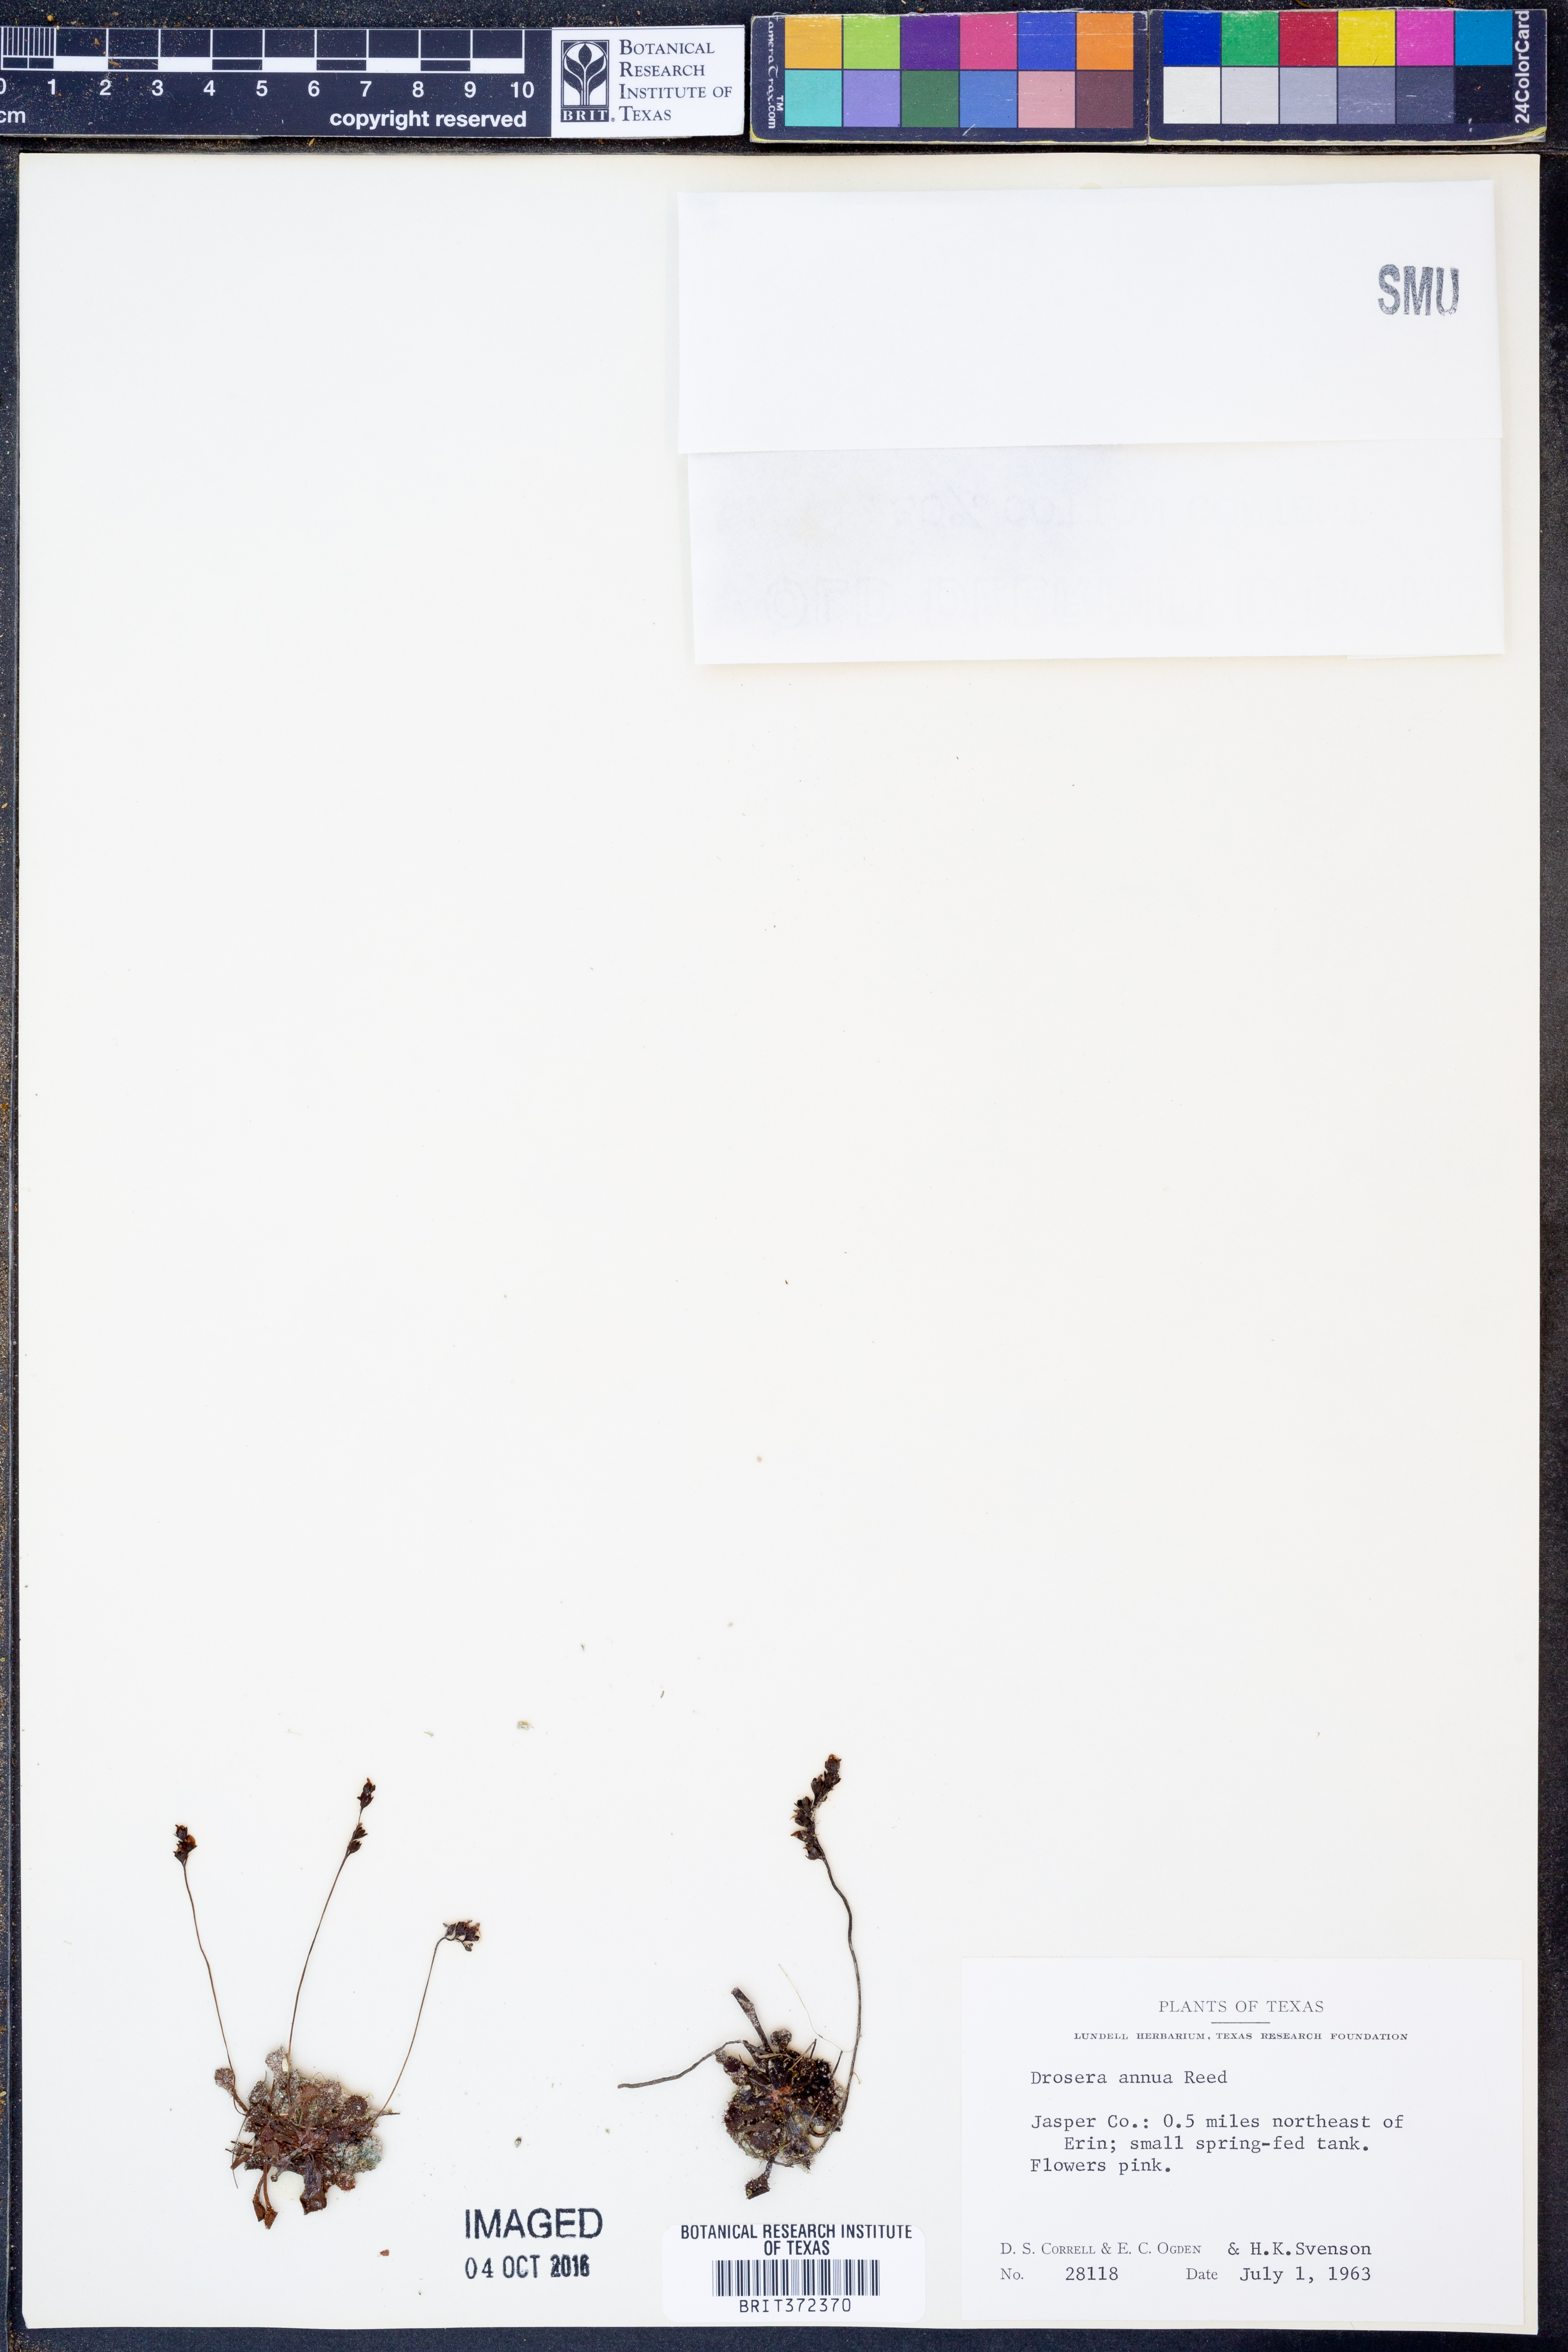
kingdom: Plantae
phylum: Tracheophyta
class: Magnoliopsida
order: Caryophyllales
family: Droseraceae
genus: Drosera
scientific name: Drosera brevifolia
